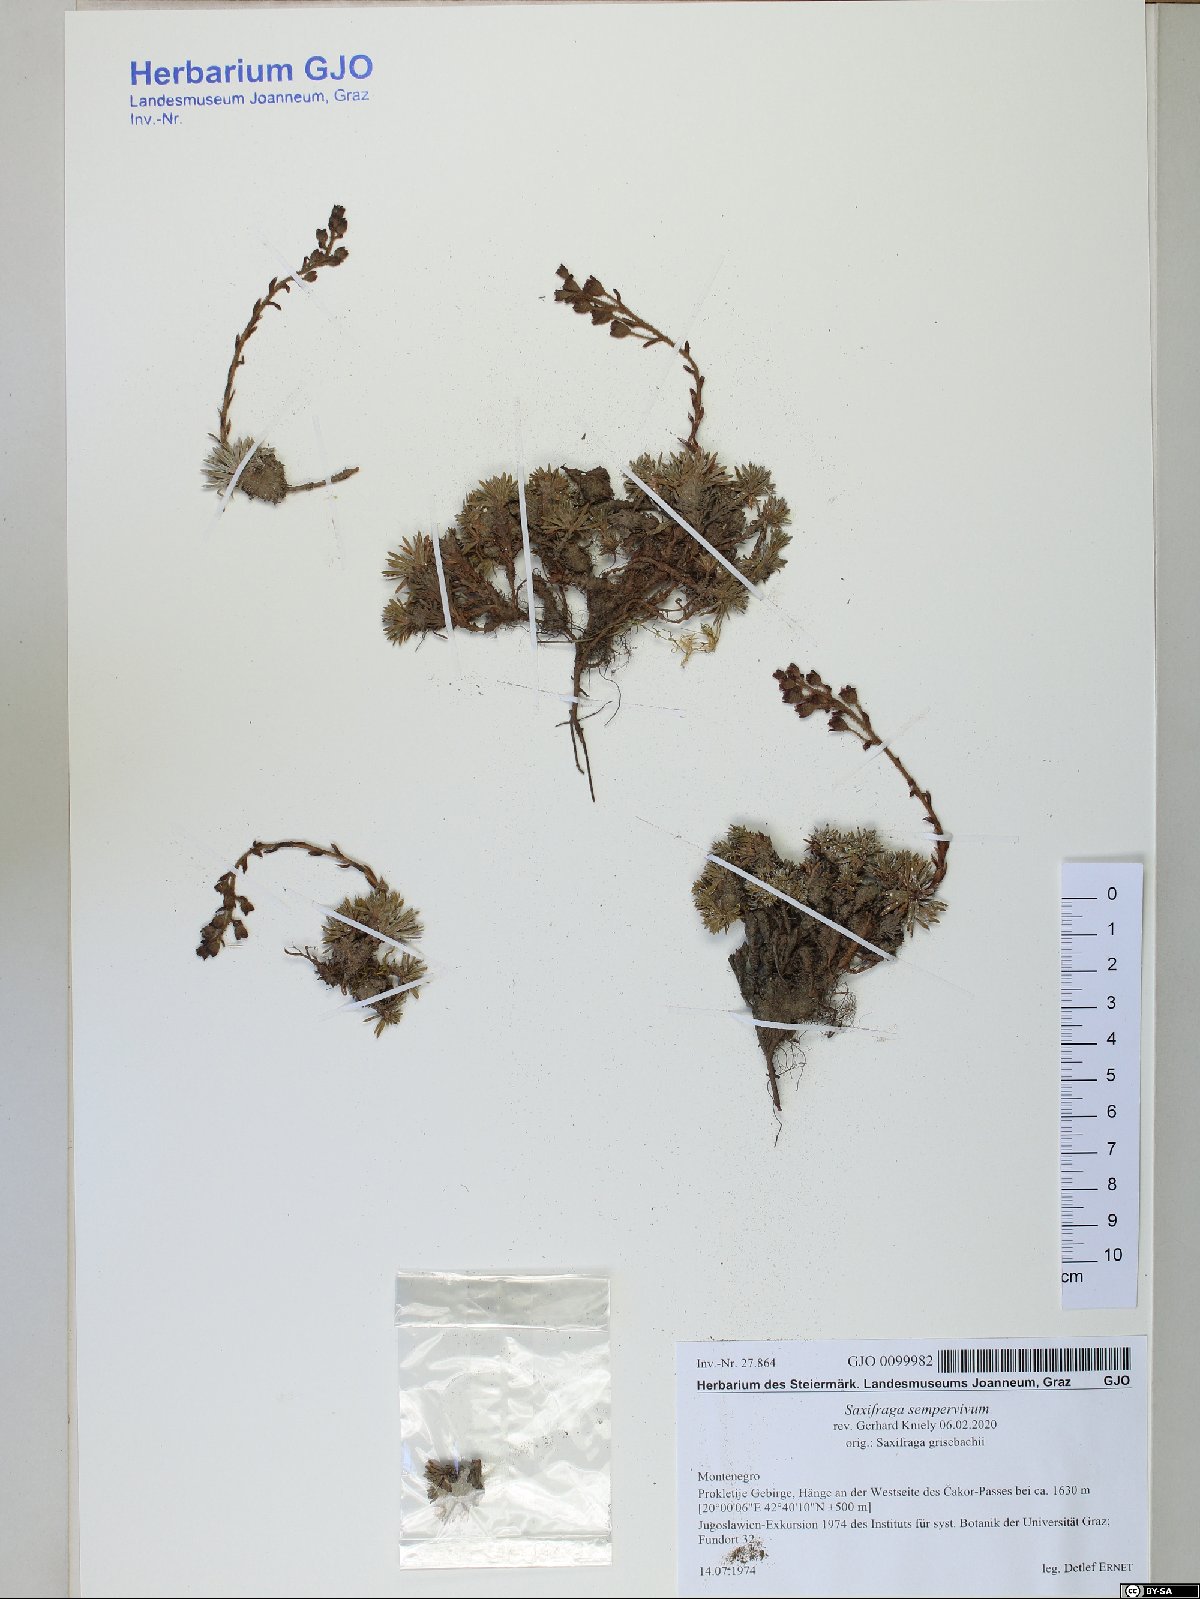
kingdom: Plantae
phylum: Tracheophyta
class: Magnoliopsida
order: Saxifragales
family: Saxifragaceae
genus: Saxifraga
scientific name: Saxifraga sempervivum
